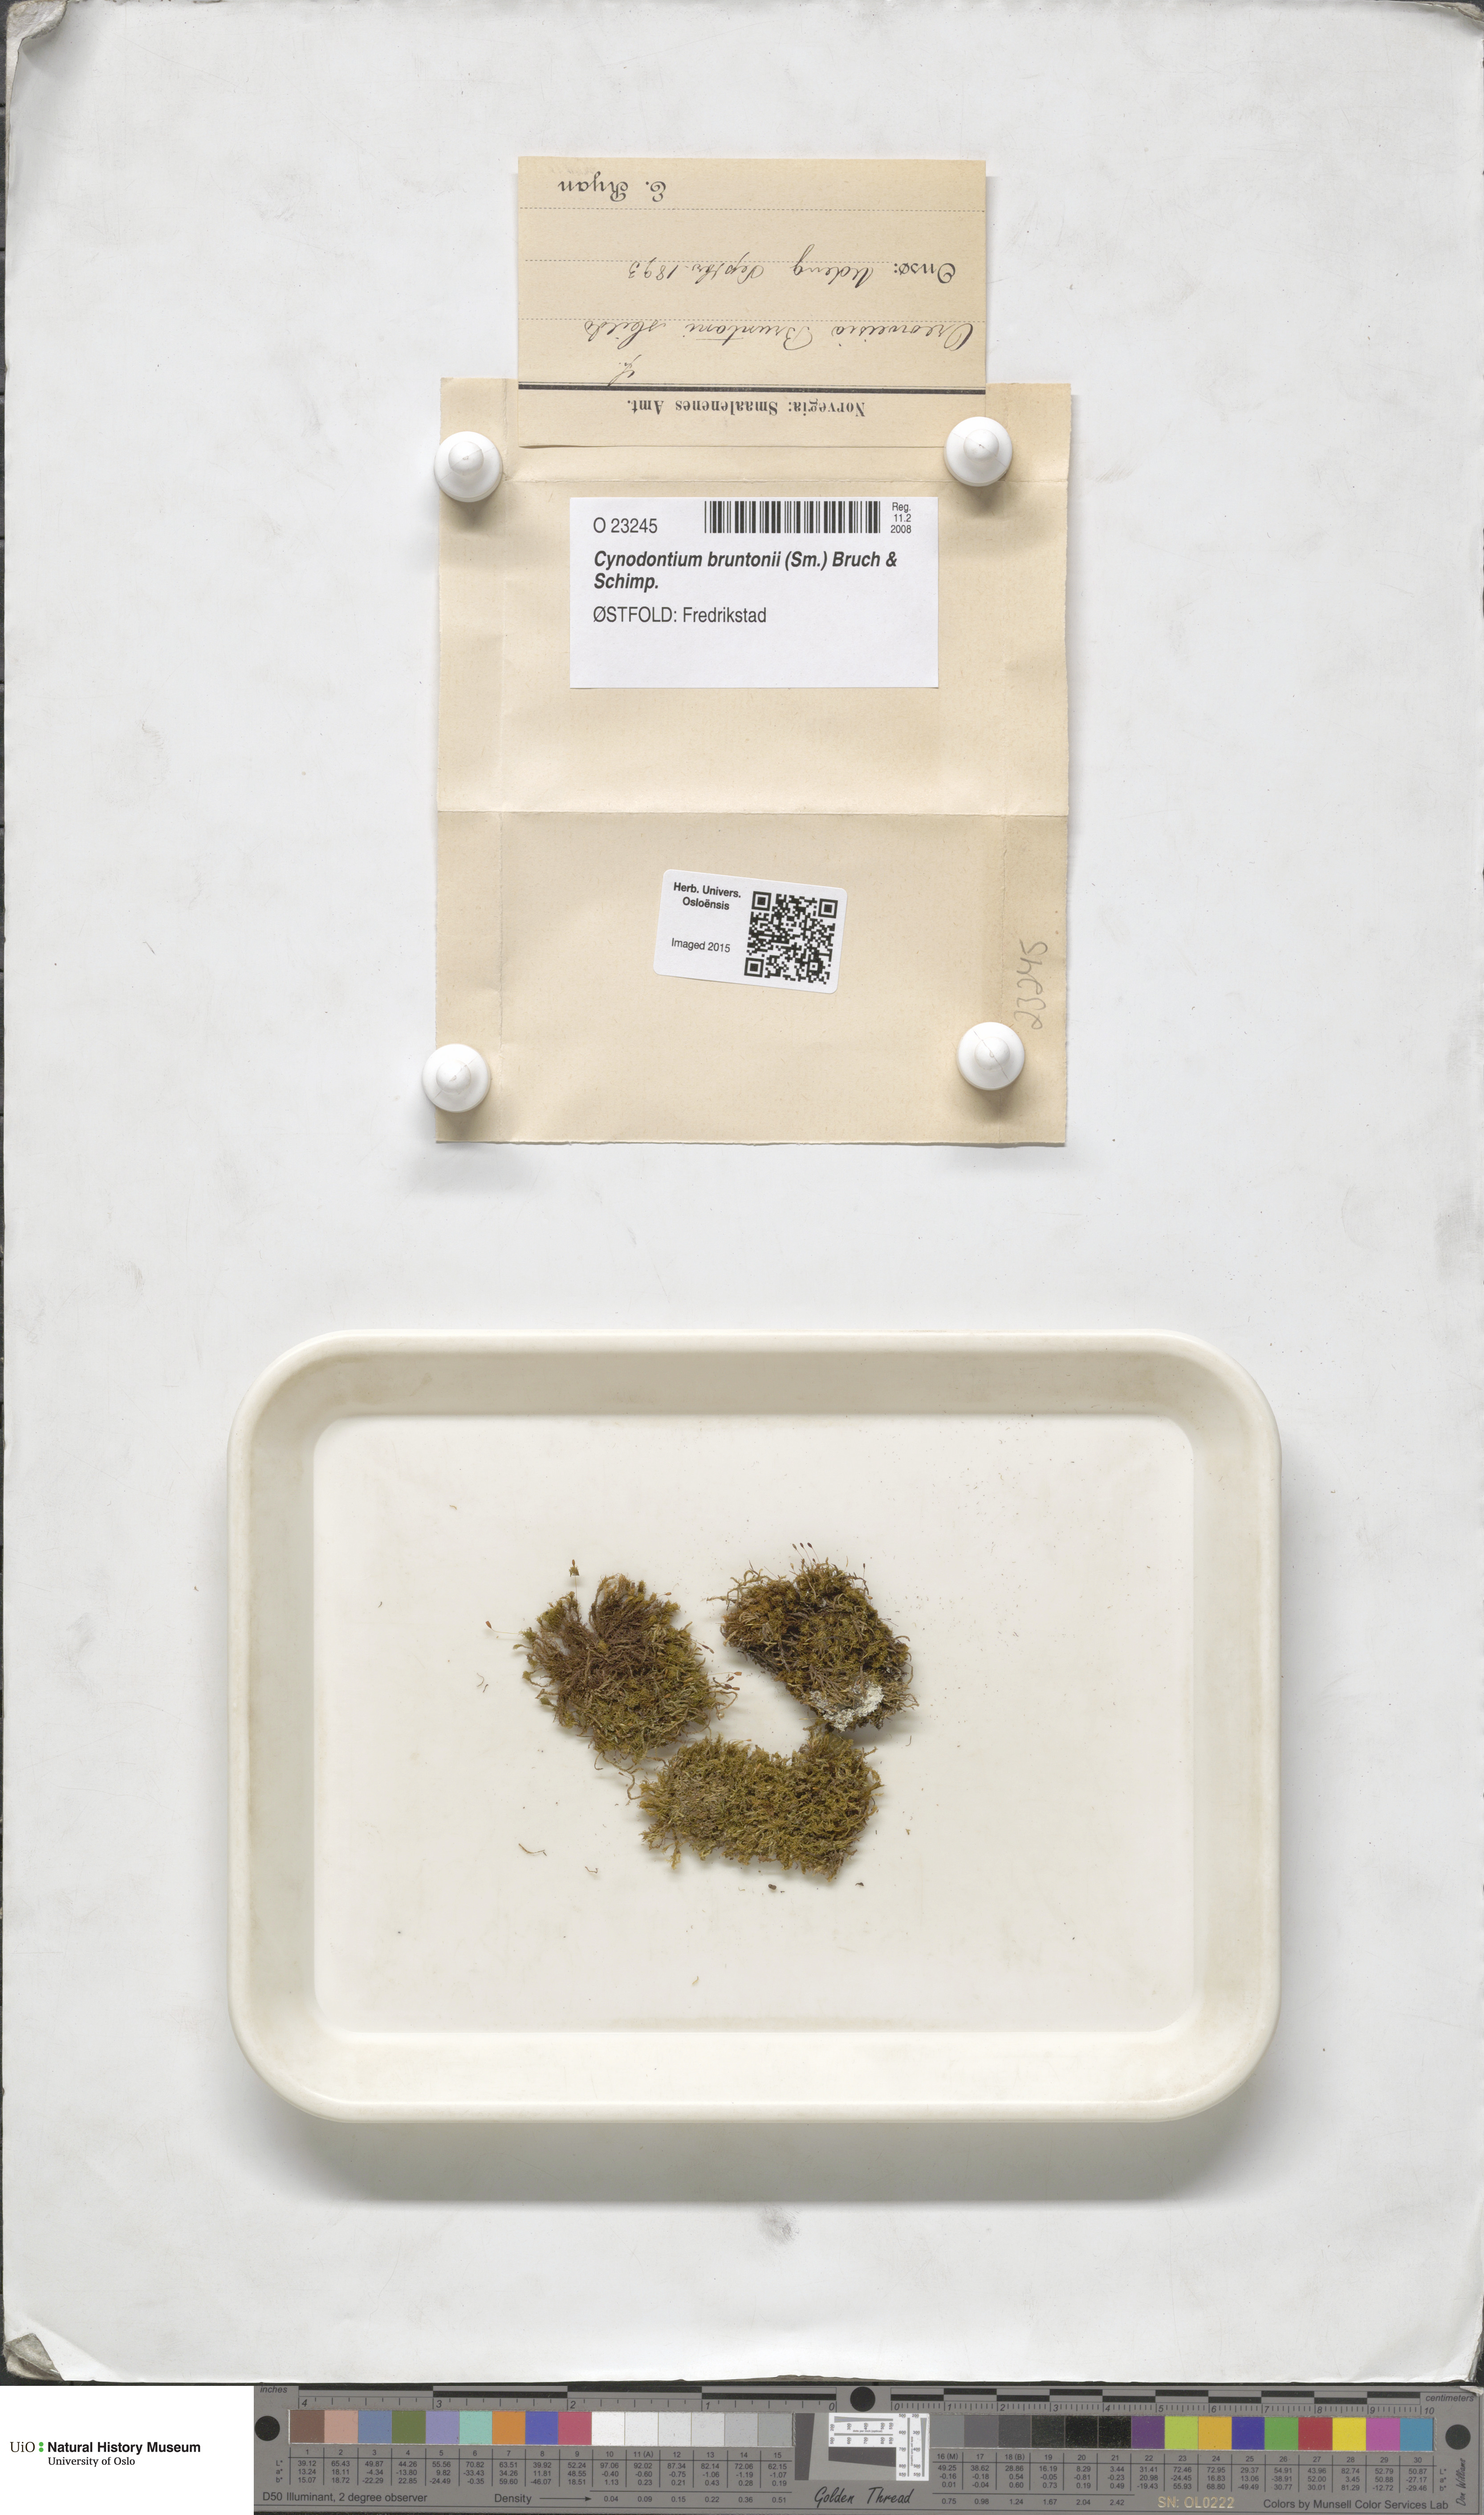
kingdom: Plantae
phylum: Bryophyta
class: Bryopsida
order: Dicranales
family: Rhabdoweisiaceae
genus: Cynodontium
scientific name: Cynodontium bruntonii
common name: Brunton's dog-tooth
